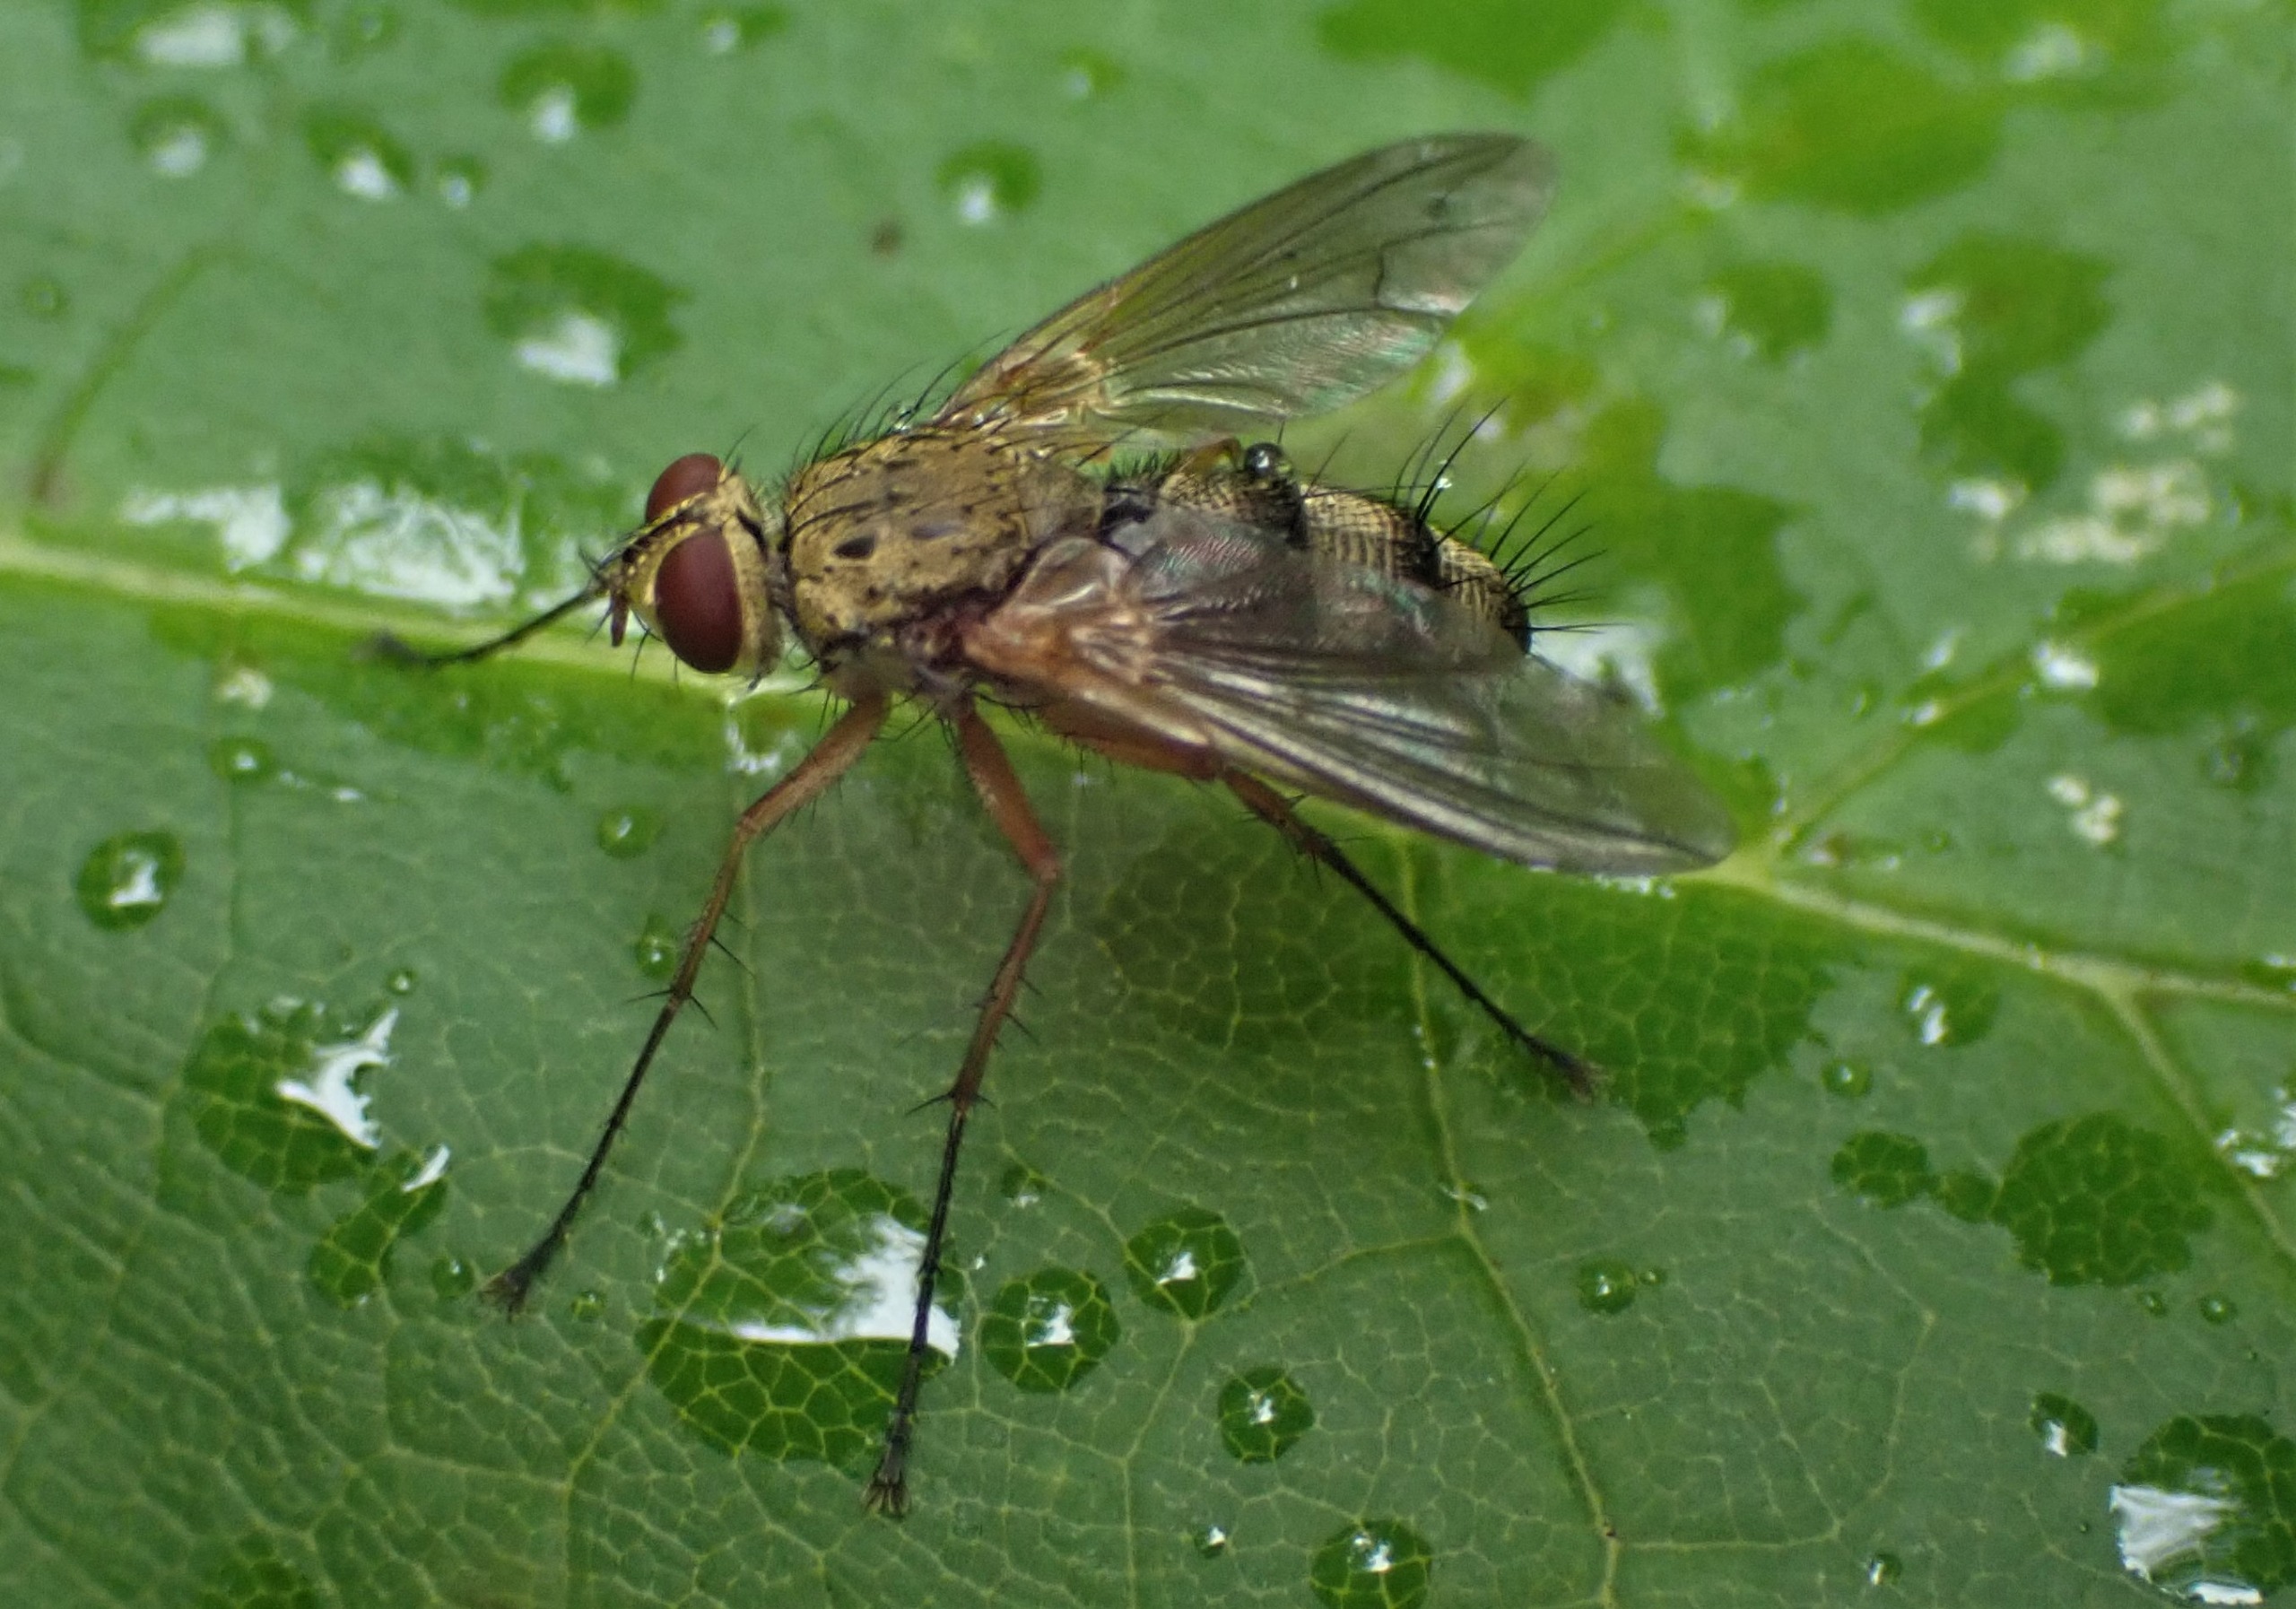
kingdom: Animalia
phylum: Arthropoda
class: Insecta
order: Diptera
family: Tachinidae
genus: Dexiosoma
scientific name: Dexiosoma caninum
